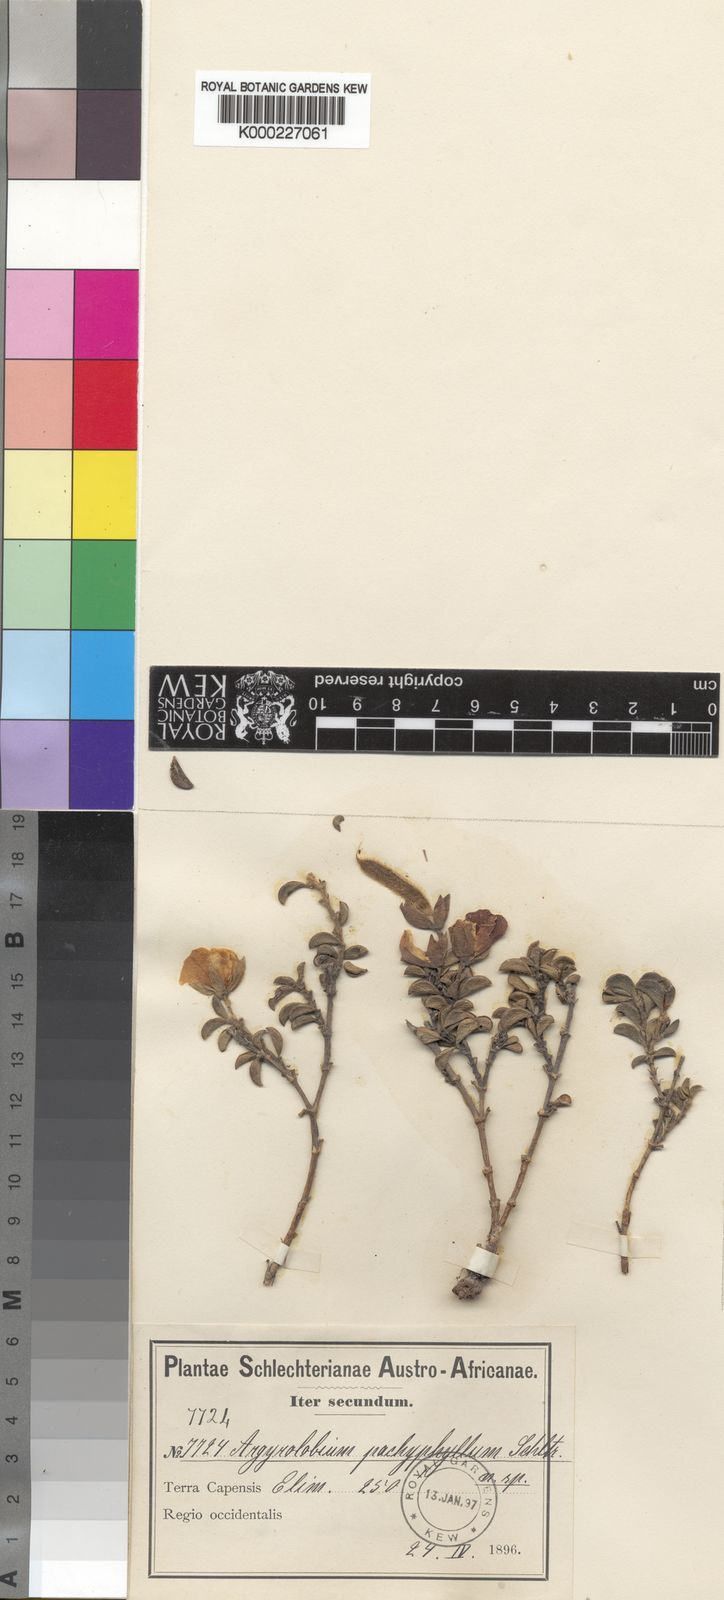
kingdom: Plantae
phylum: Tracheophyta
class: Magnoliopsida
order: Fabales
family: Fabaceae
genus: Argyrolobium
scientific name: Argyrolobium pachyphyllum
